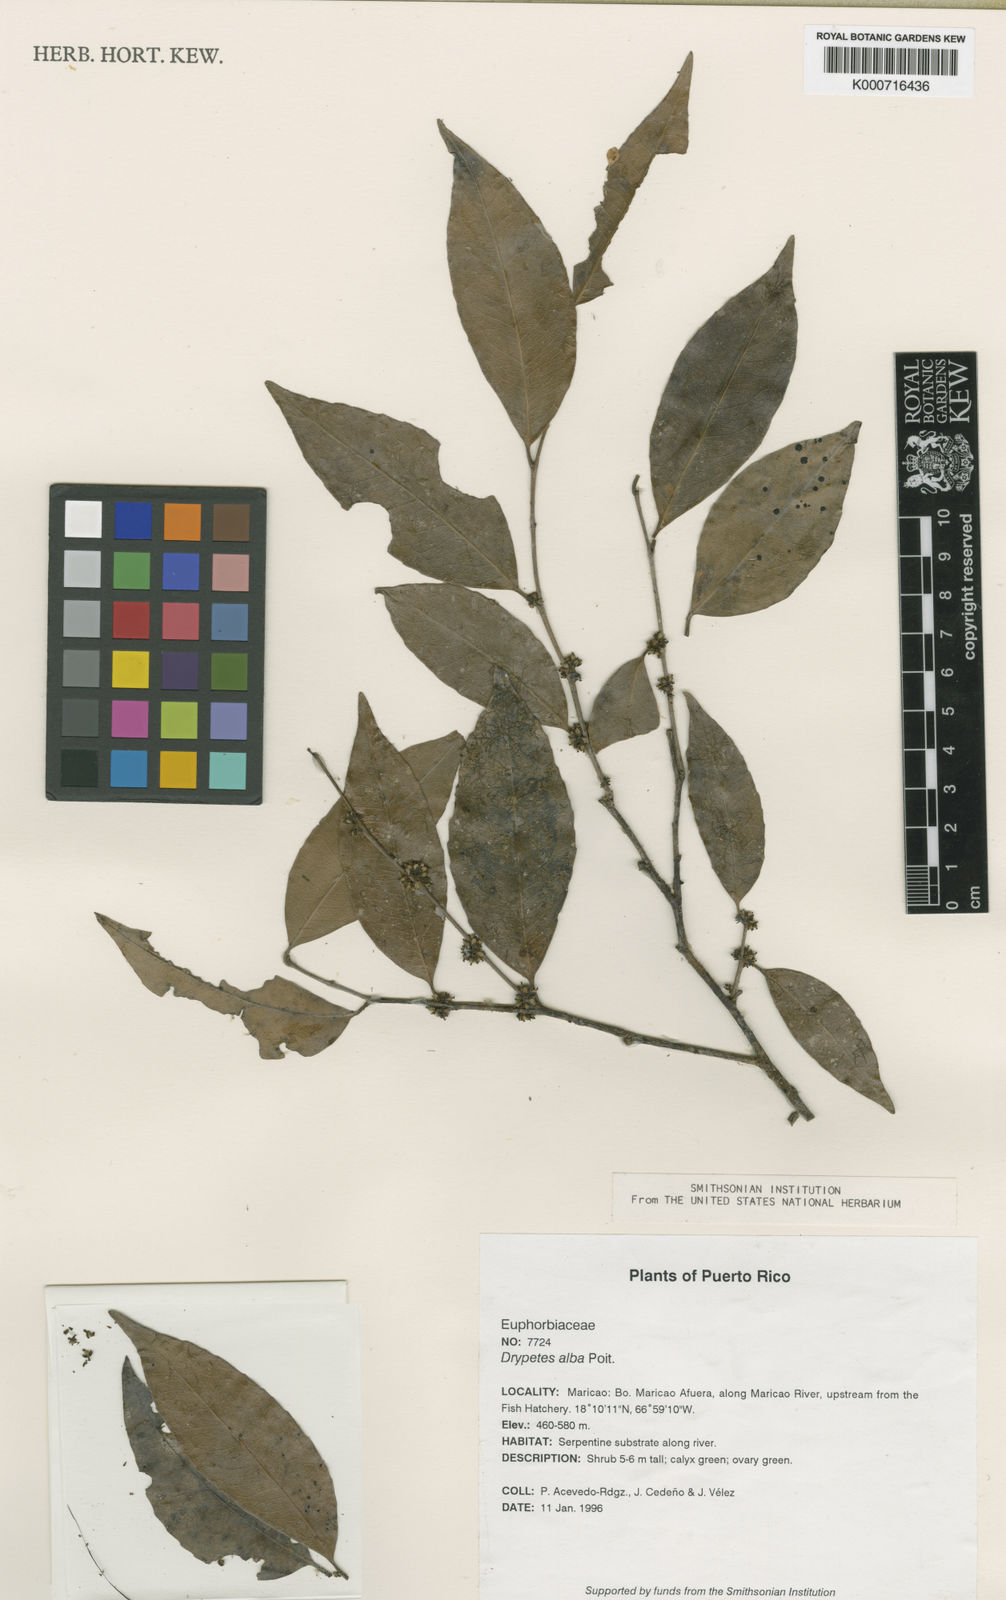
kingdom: Plantae
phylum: Tracheophyta
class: Magnoliopsida
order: Malpighiales
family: Putranjivaceae
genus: Drypetes
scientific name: Drypetes alba
